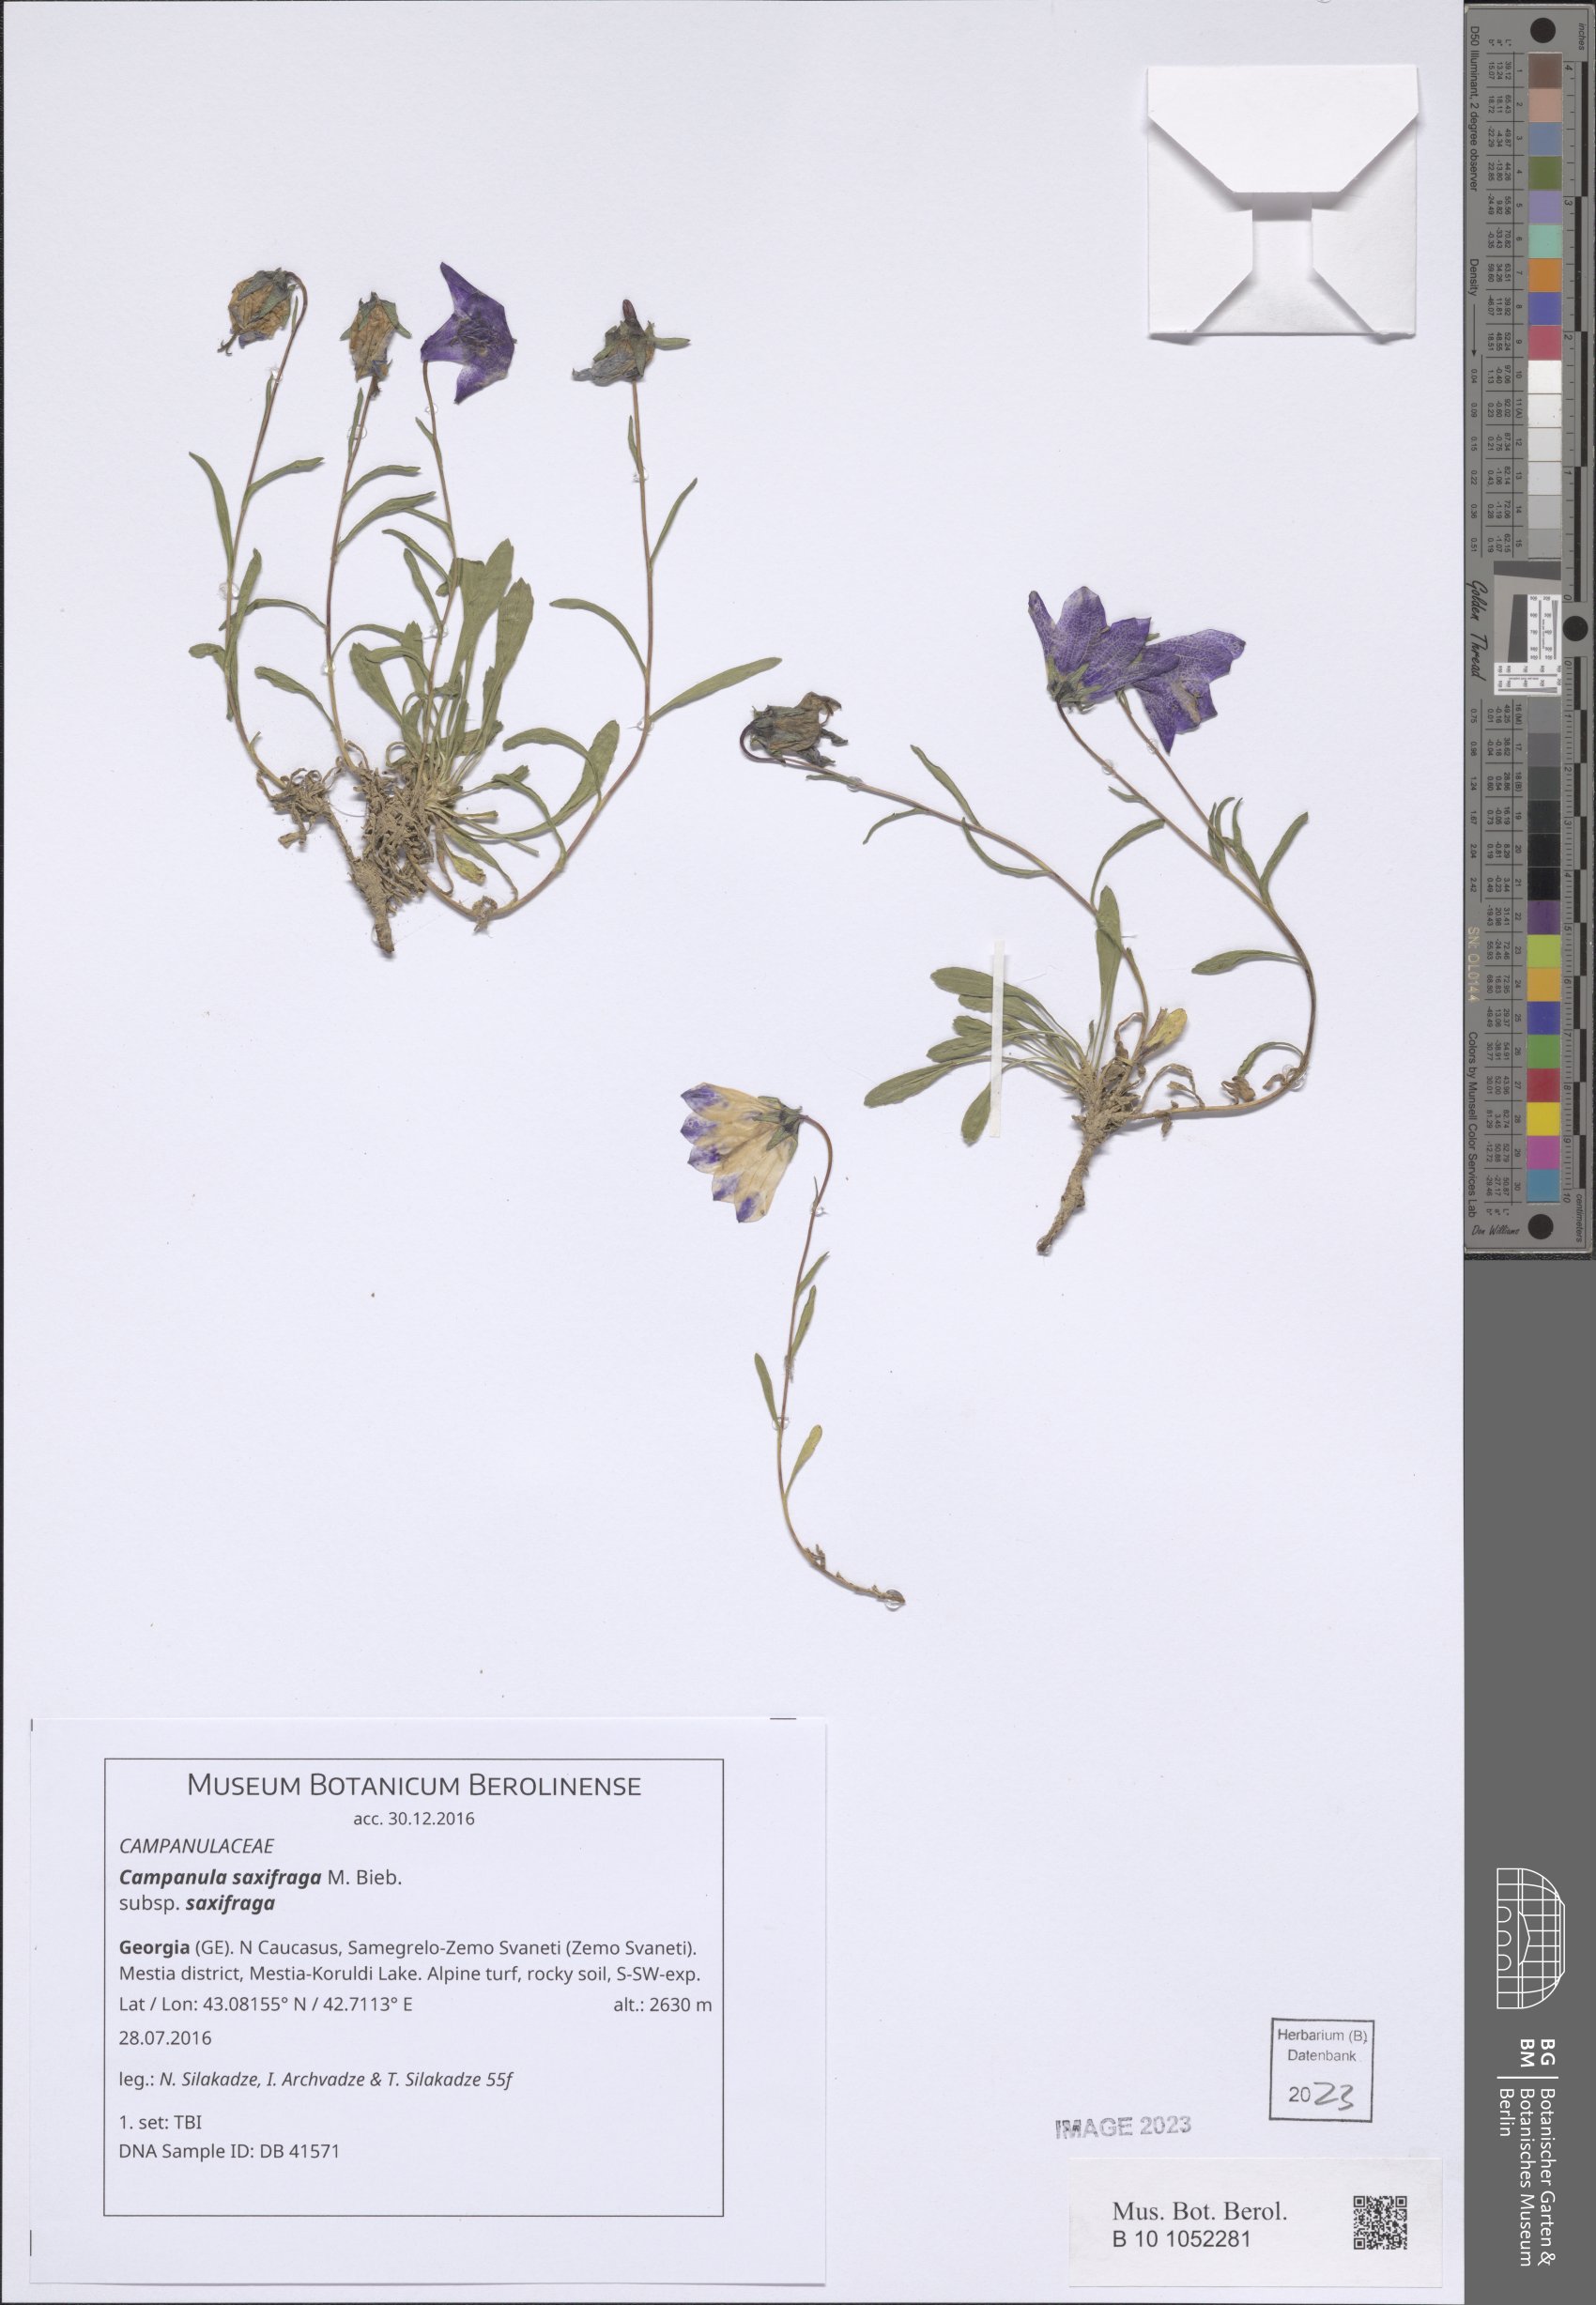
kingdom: Plantae
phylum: Tracheophyta
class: Magnoliopsida
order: Asterales
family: Campanulaceae
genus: Campanula
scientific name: Campanula saxifraga
